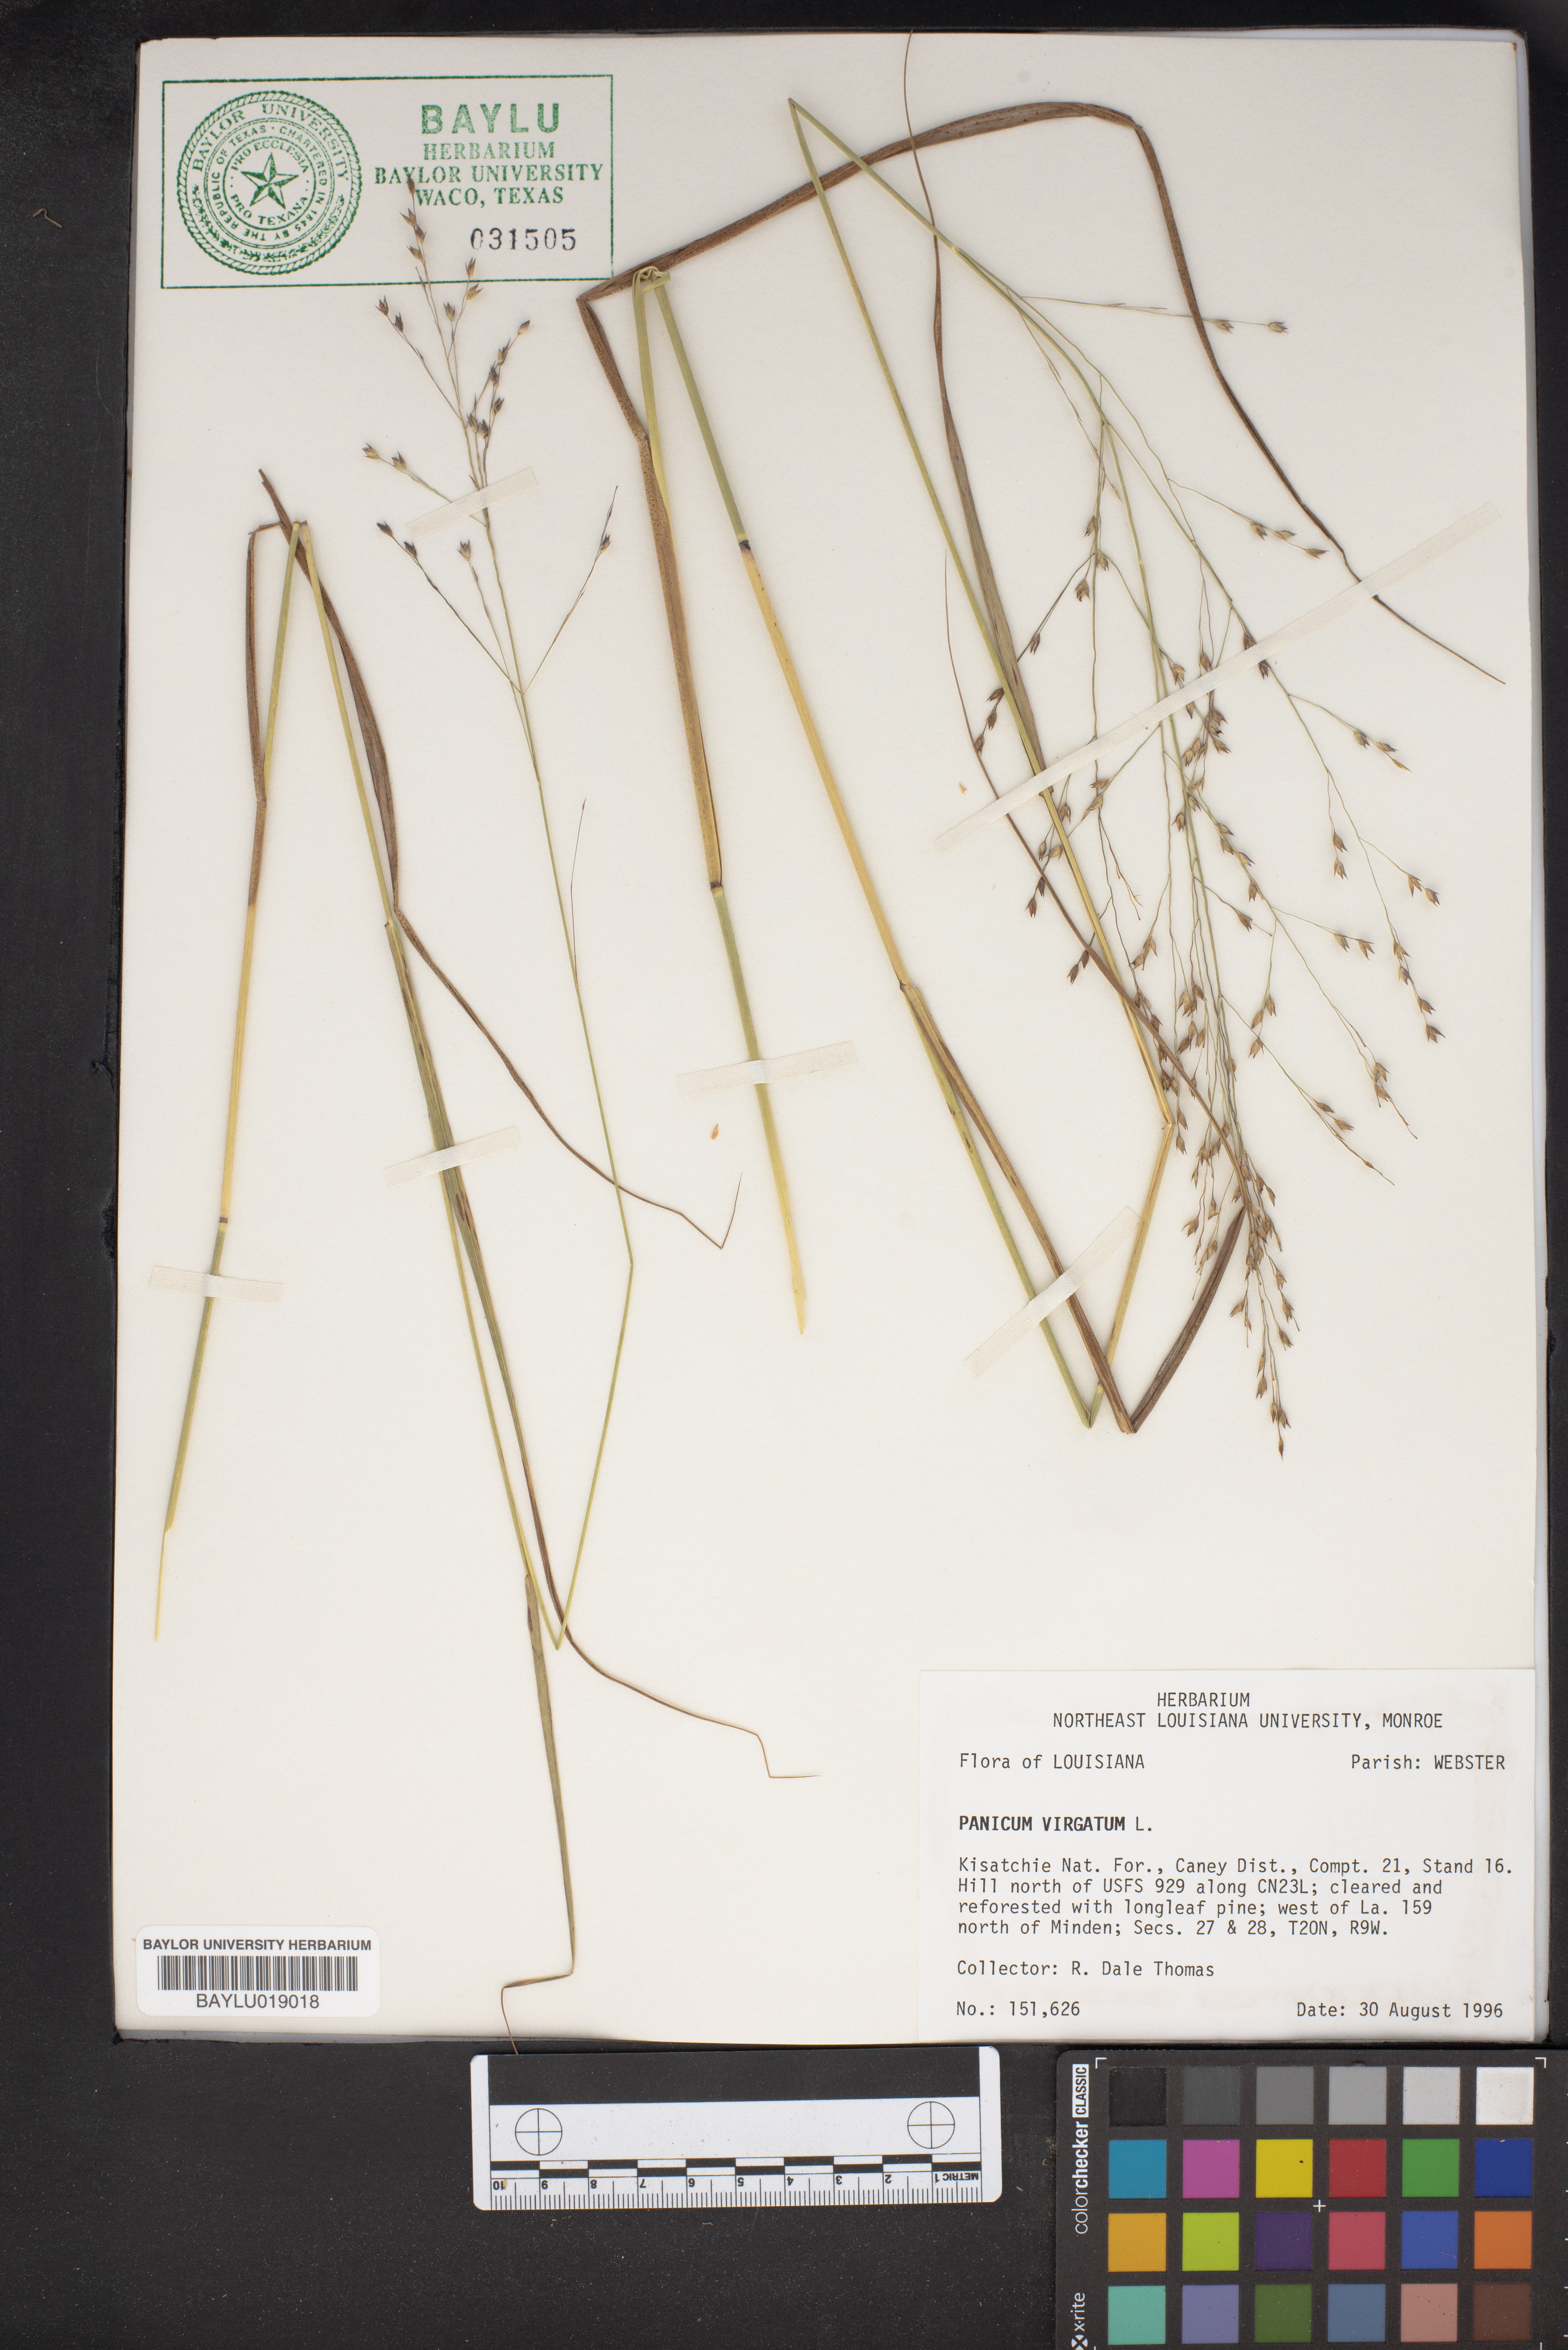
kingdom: Plantae
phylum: Tracheophyta
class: Liliopsida
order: Poales
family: Poaceae
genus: Panicum
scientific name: Panicum virgatum
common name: Switchgrass
